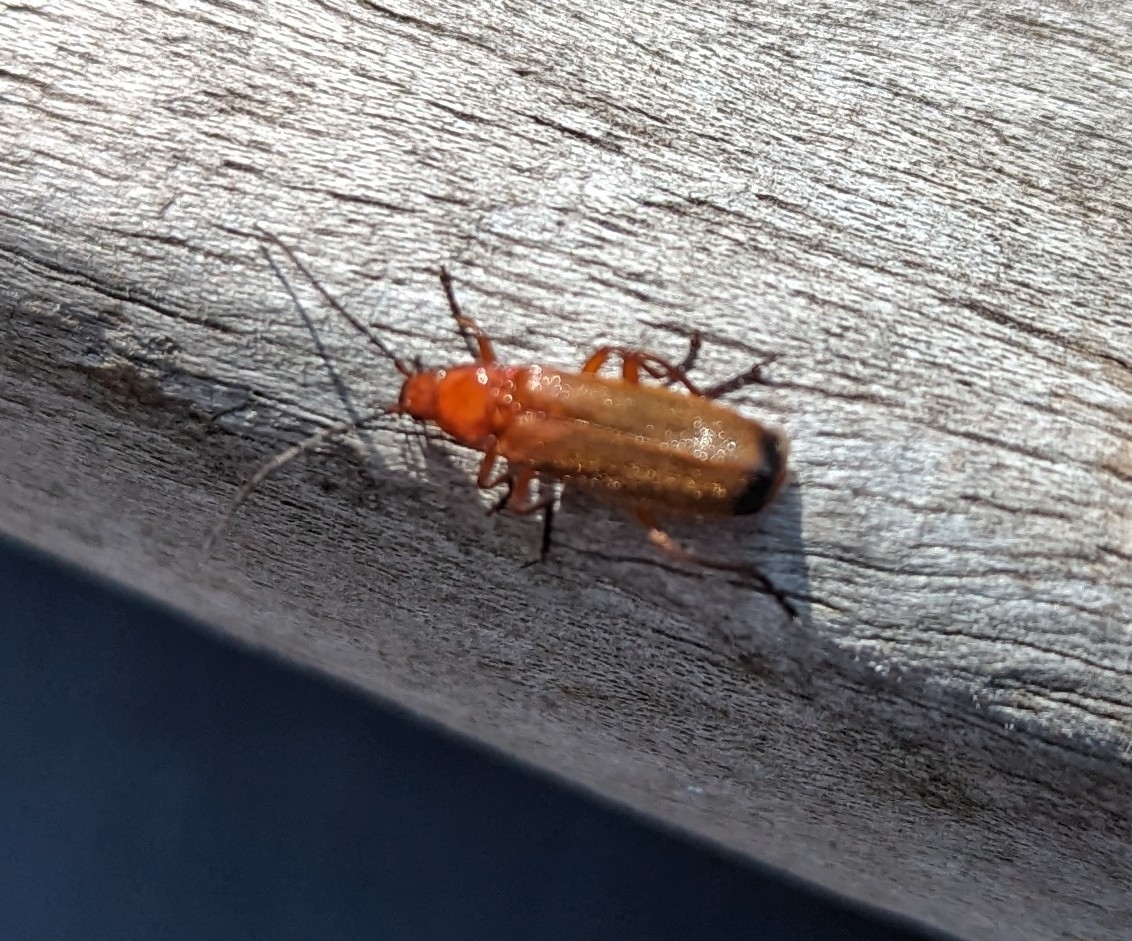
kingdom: Animalia
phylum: Arthropoda
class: Insecta
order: Coleoptera
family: Cantharidae
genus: Rhagonycha
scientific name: Rhagonycha fulva
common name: Præstebille
